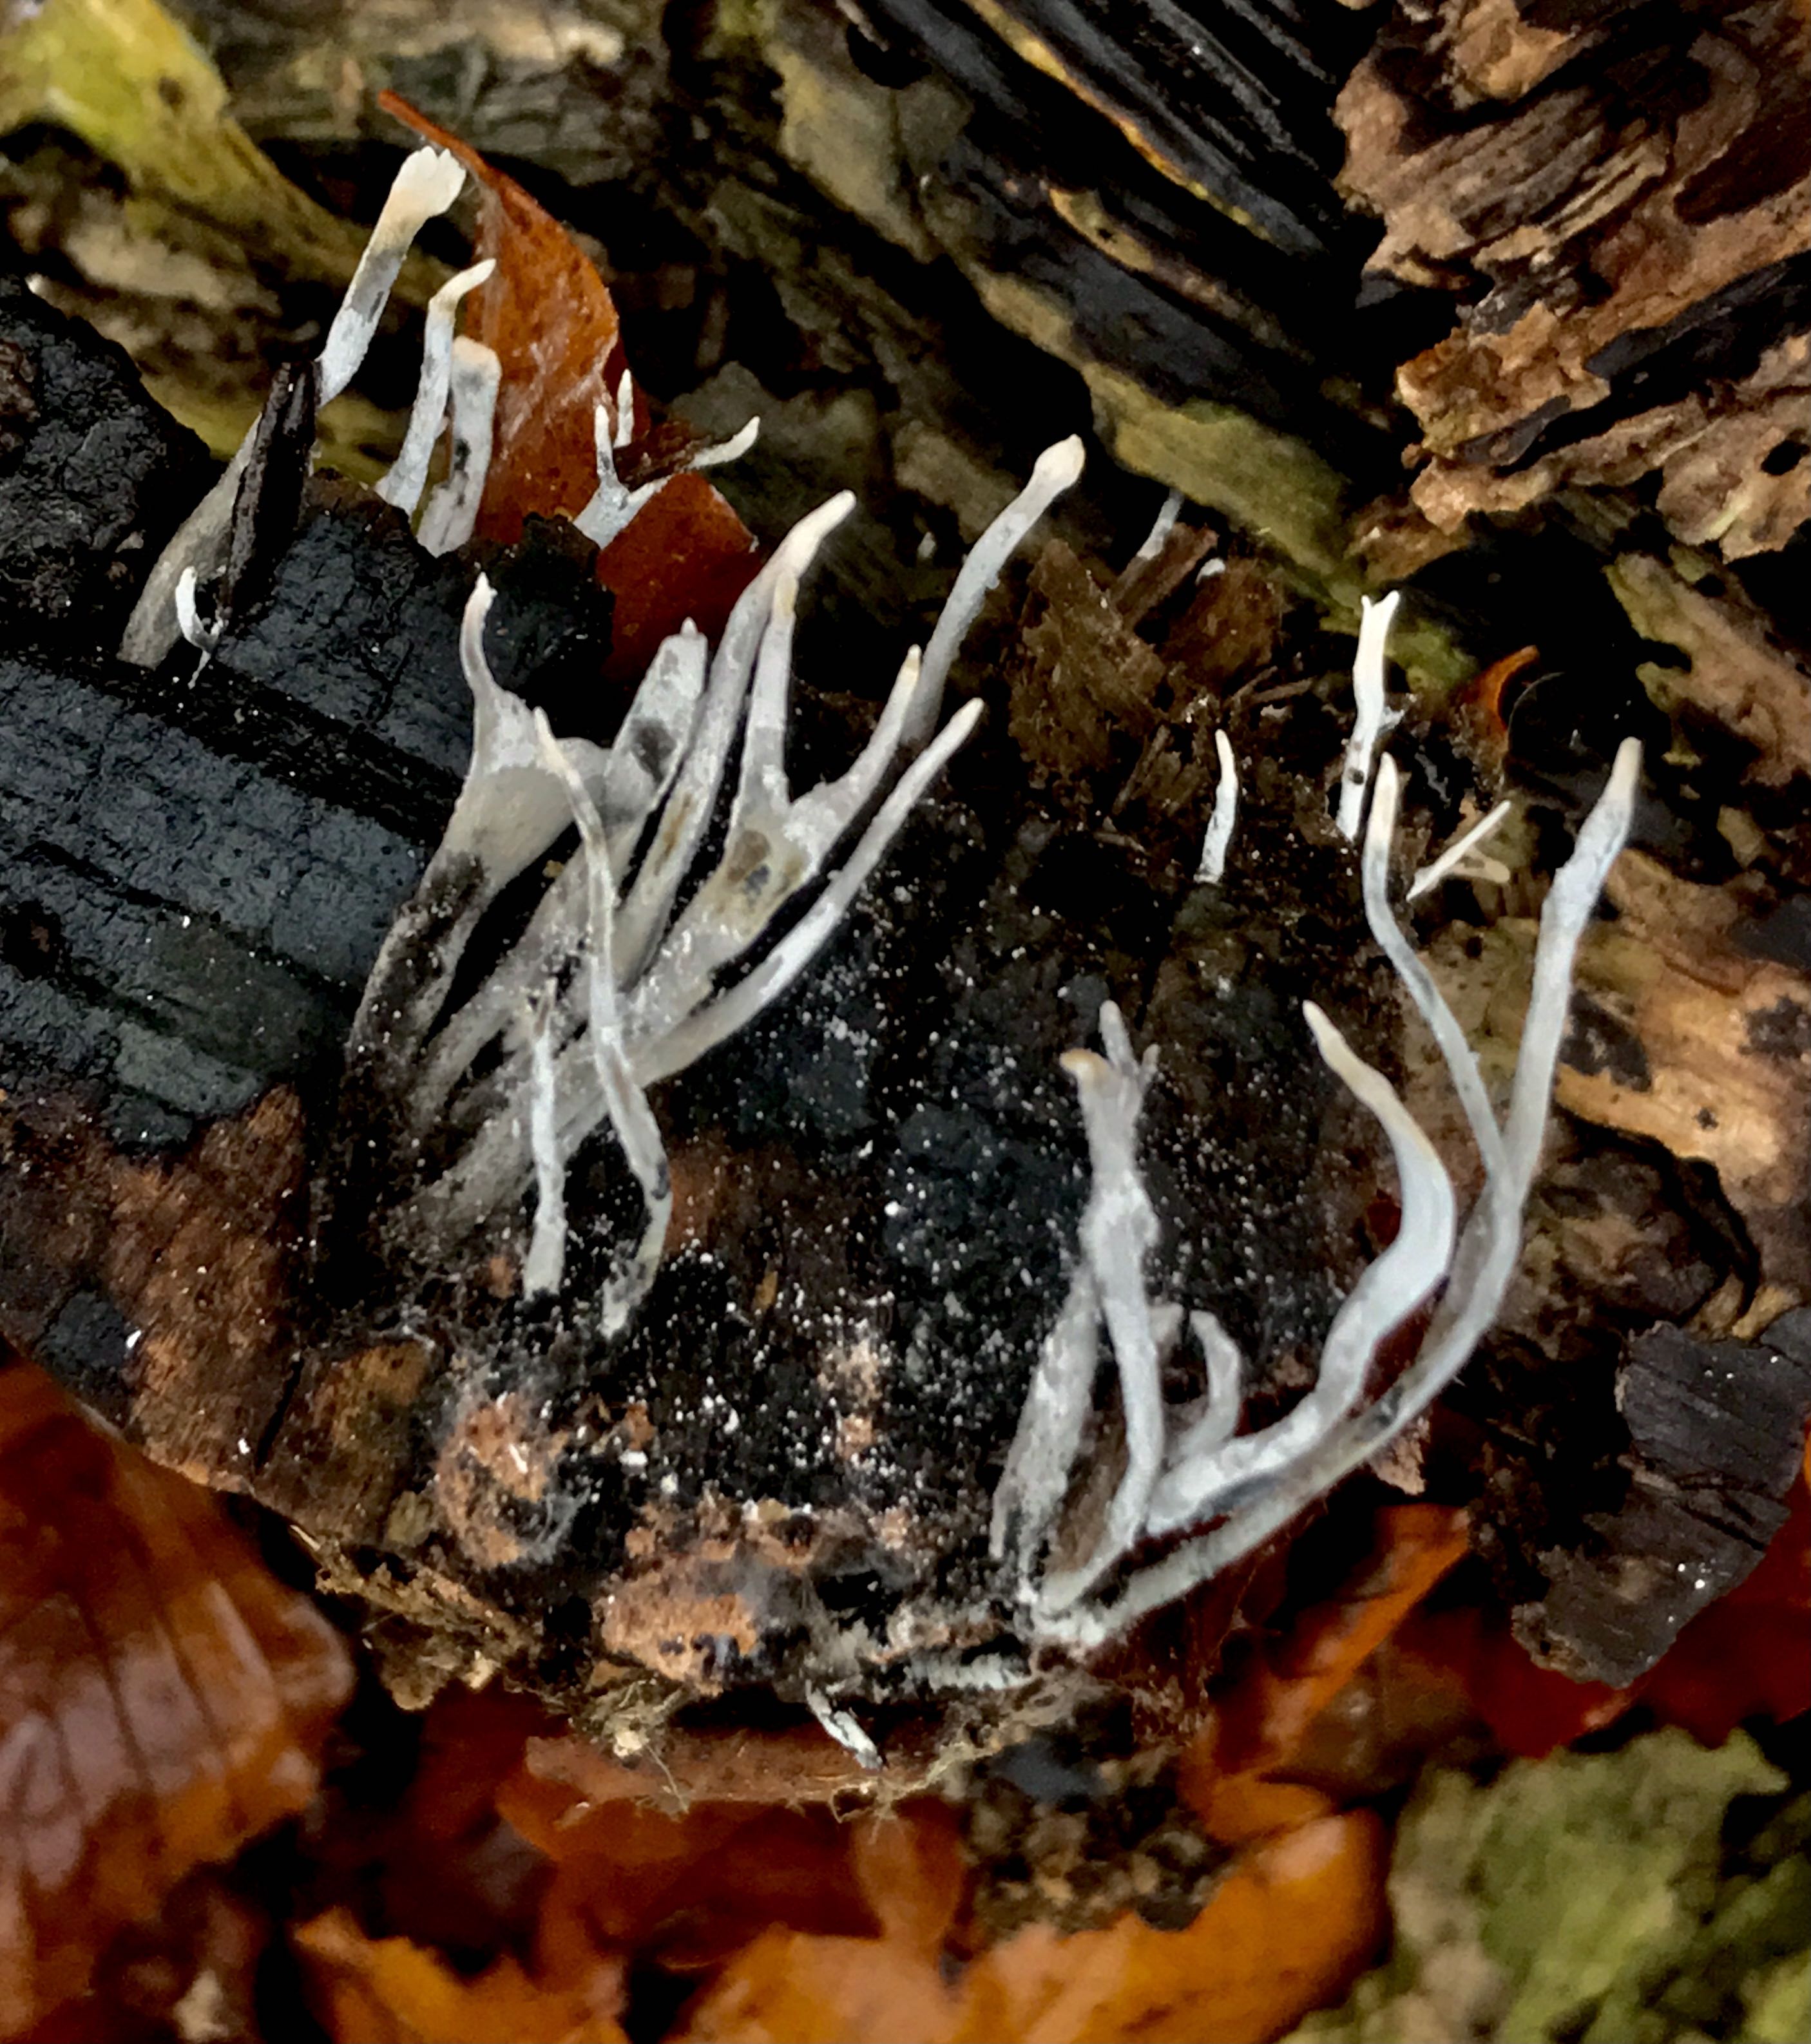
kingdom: Fungi
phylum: Ascomycota
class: Sordariomycetes
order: Xylariales
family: Xylariaceae
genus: Xylaria
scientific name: Xylaria hypoxylon
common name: grenet stødsvamp
